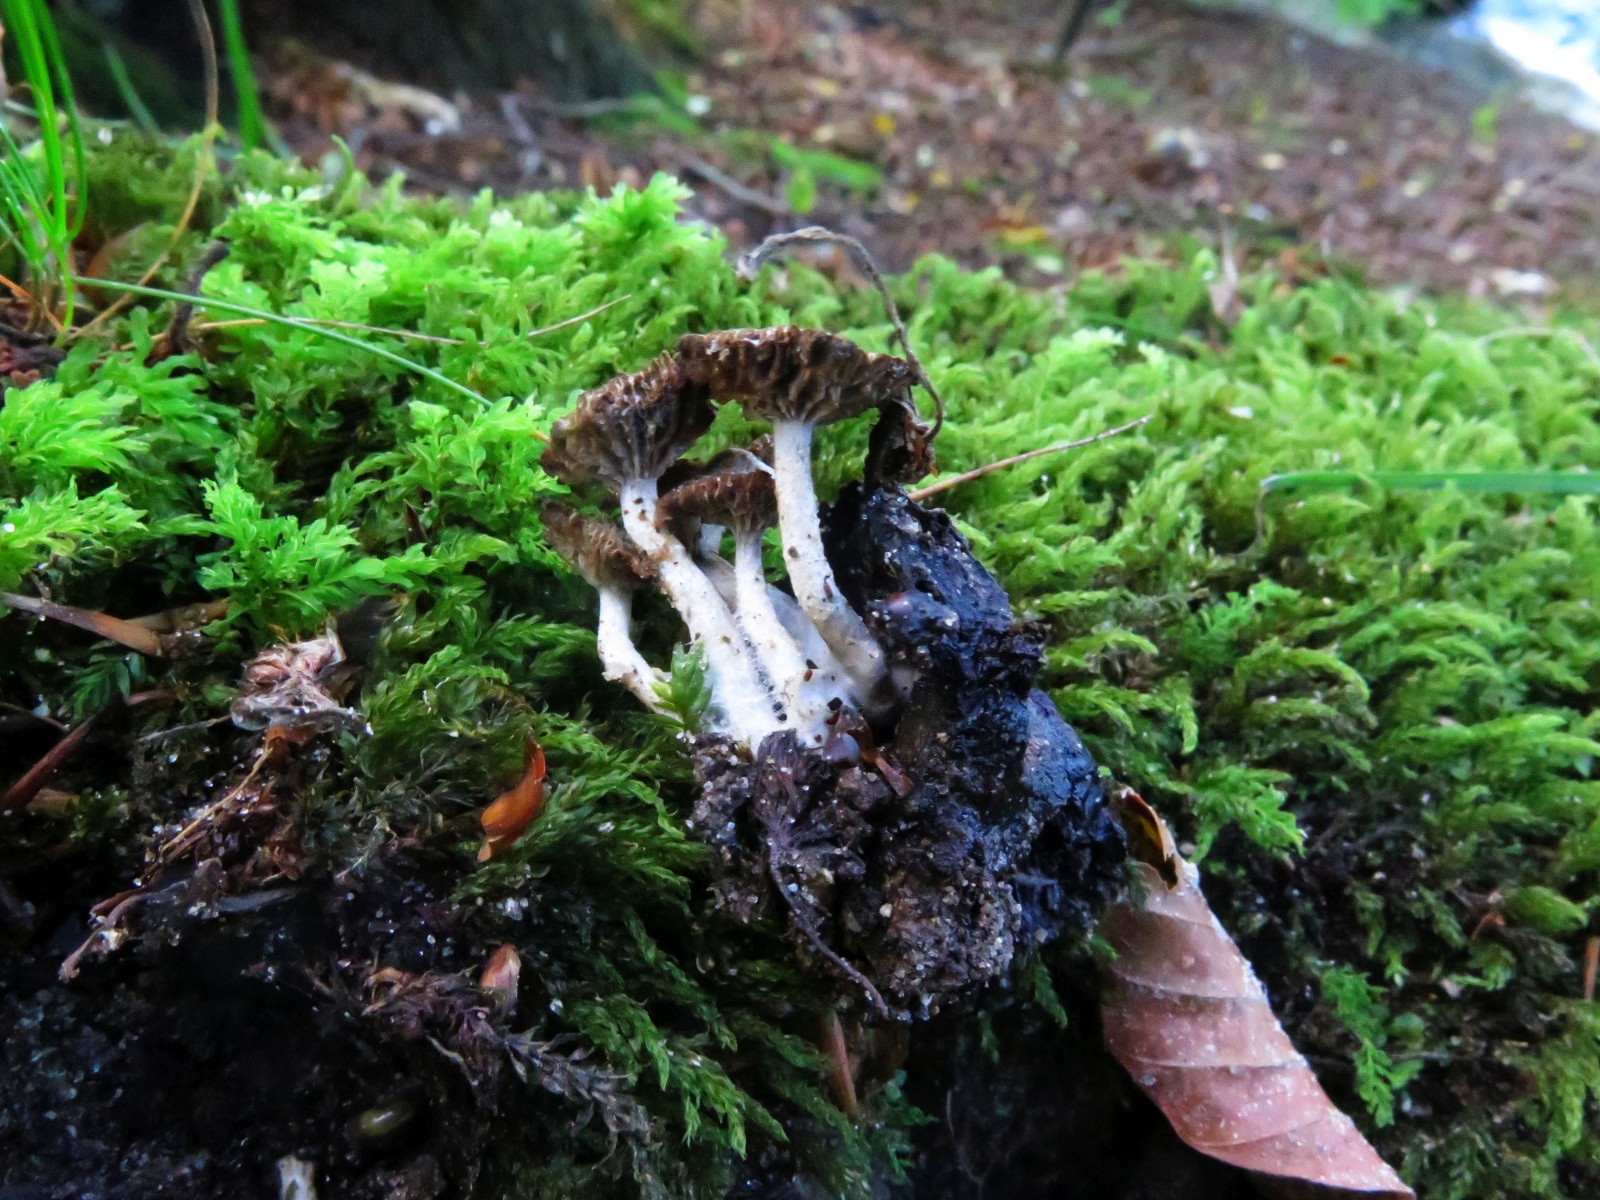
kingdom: Fungi
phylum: Basidiomycota
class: Agaricomycetes
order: Agaricales
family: Lyophyllaceae
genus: Asterophora
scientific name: Asterophora parasitica
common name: grå snyltehat
